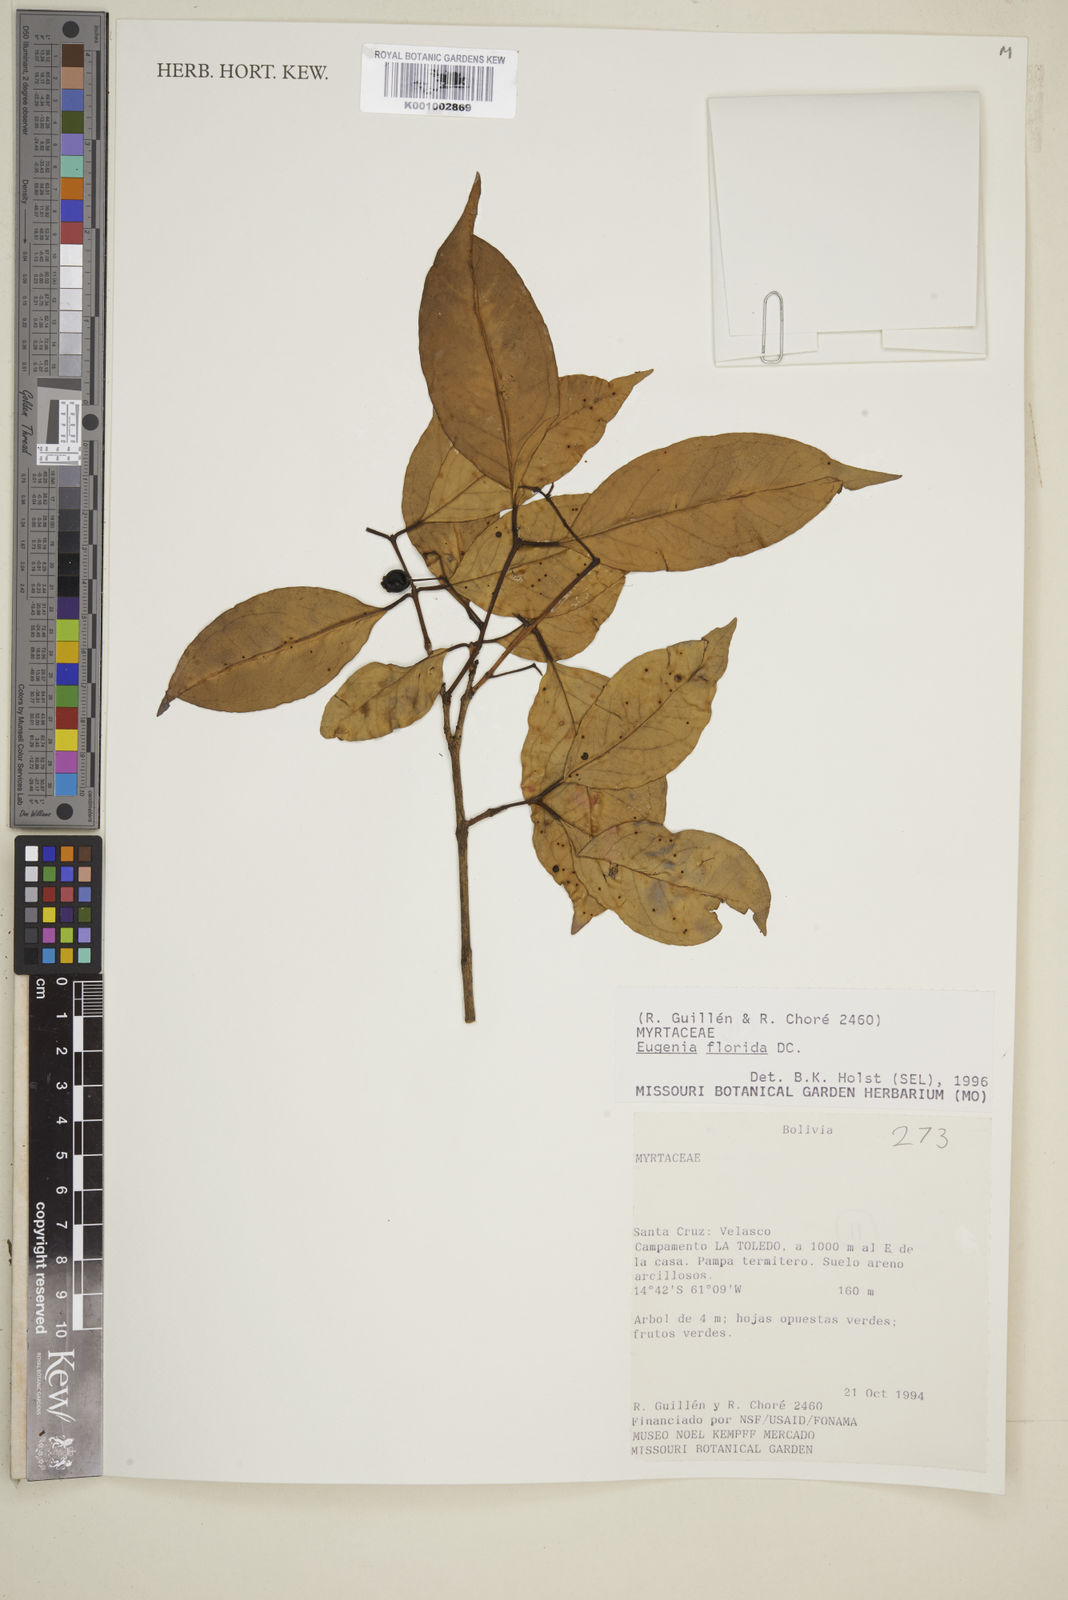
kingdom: Plantae
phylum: Tracheophyta
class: Magnoliopsida
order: Myrtales
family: Myrtaceae
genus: Eugenia
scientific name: Eugenia florida
